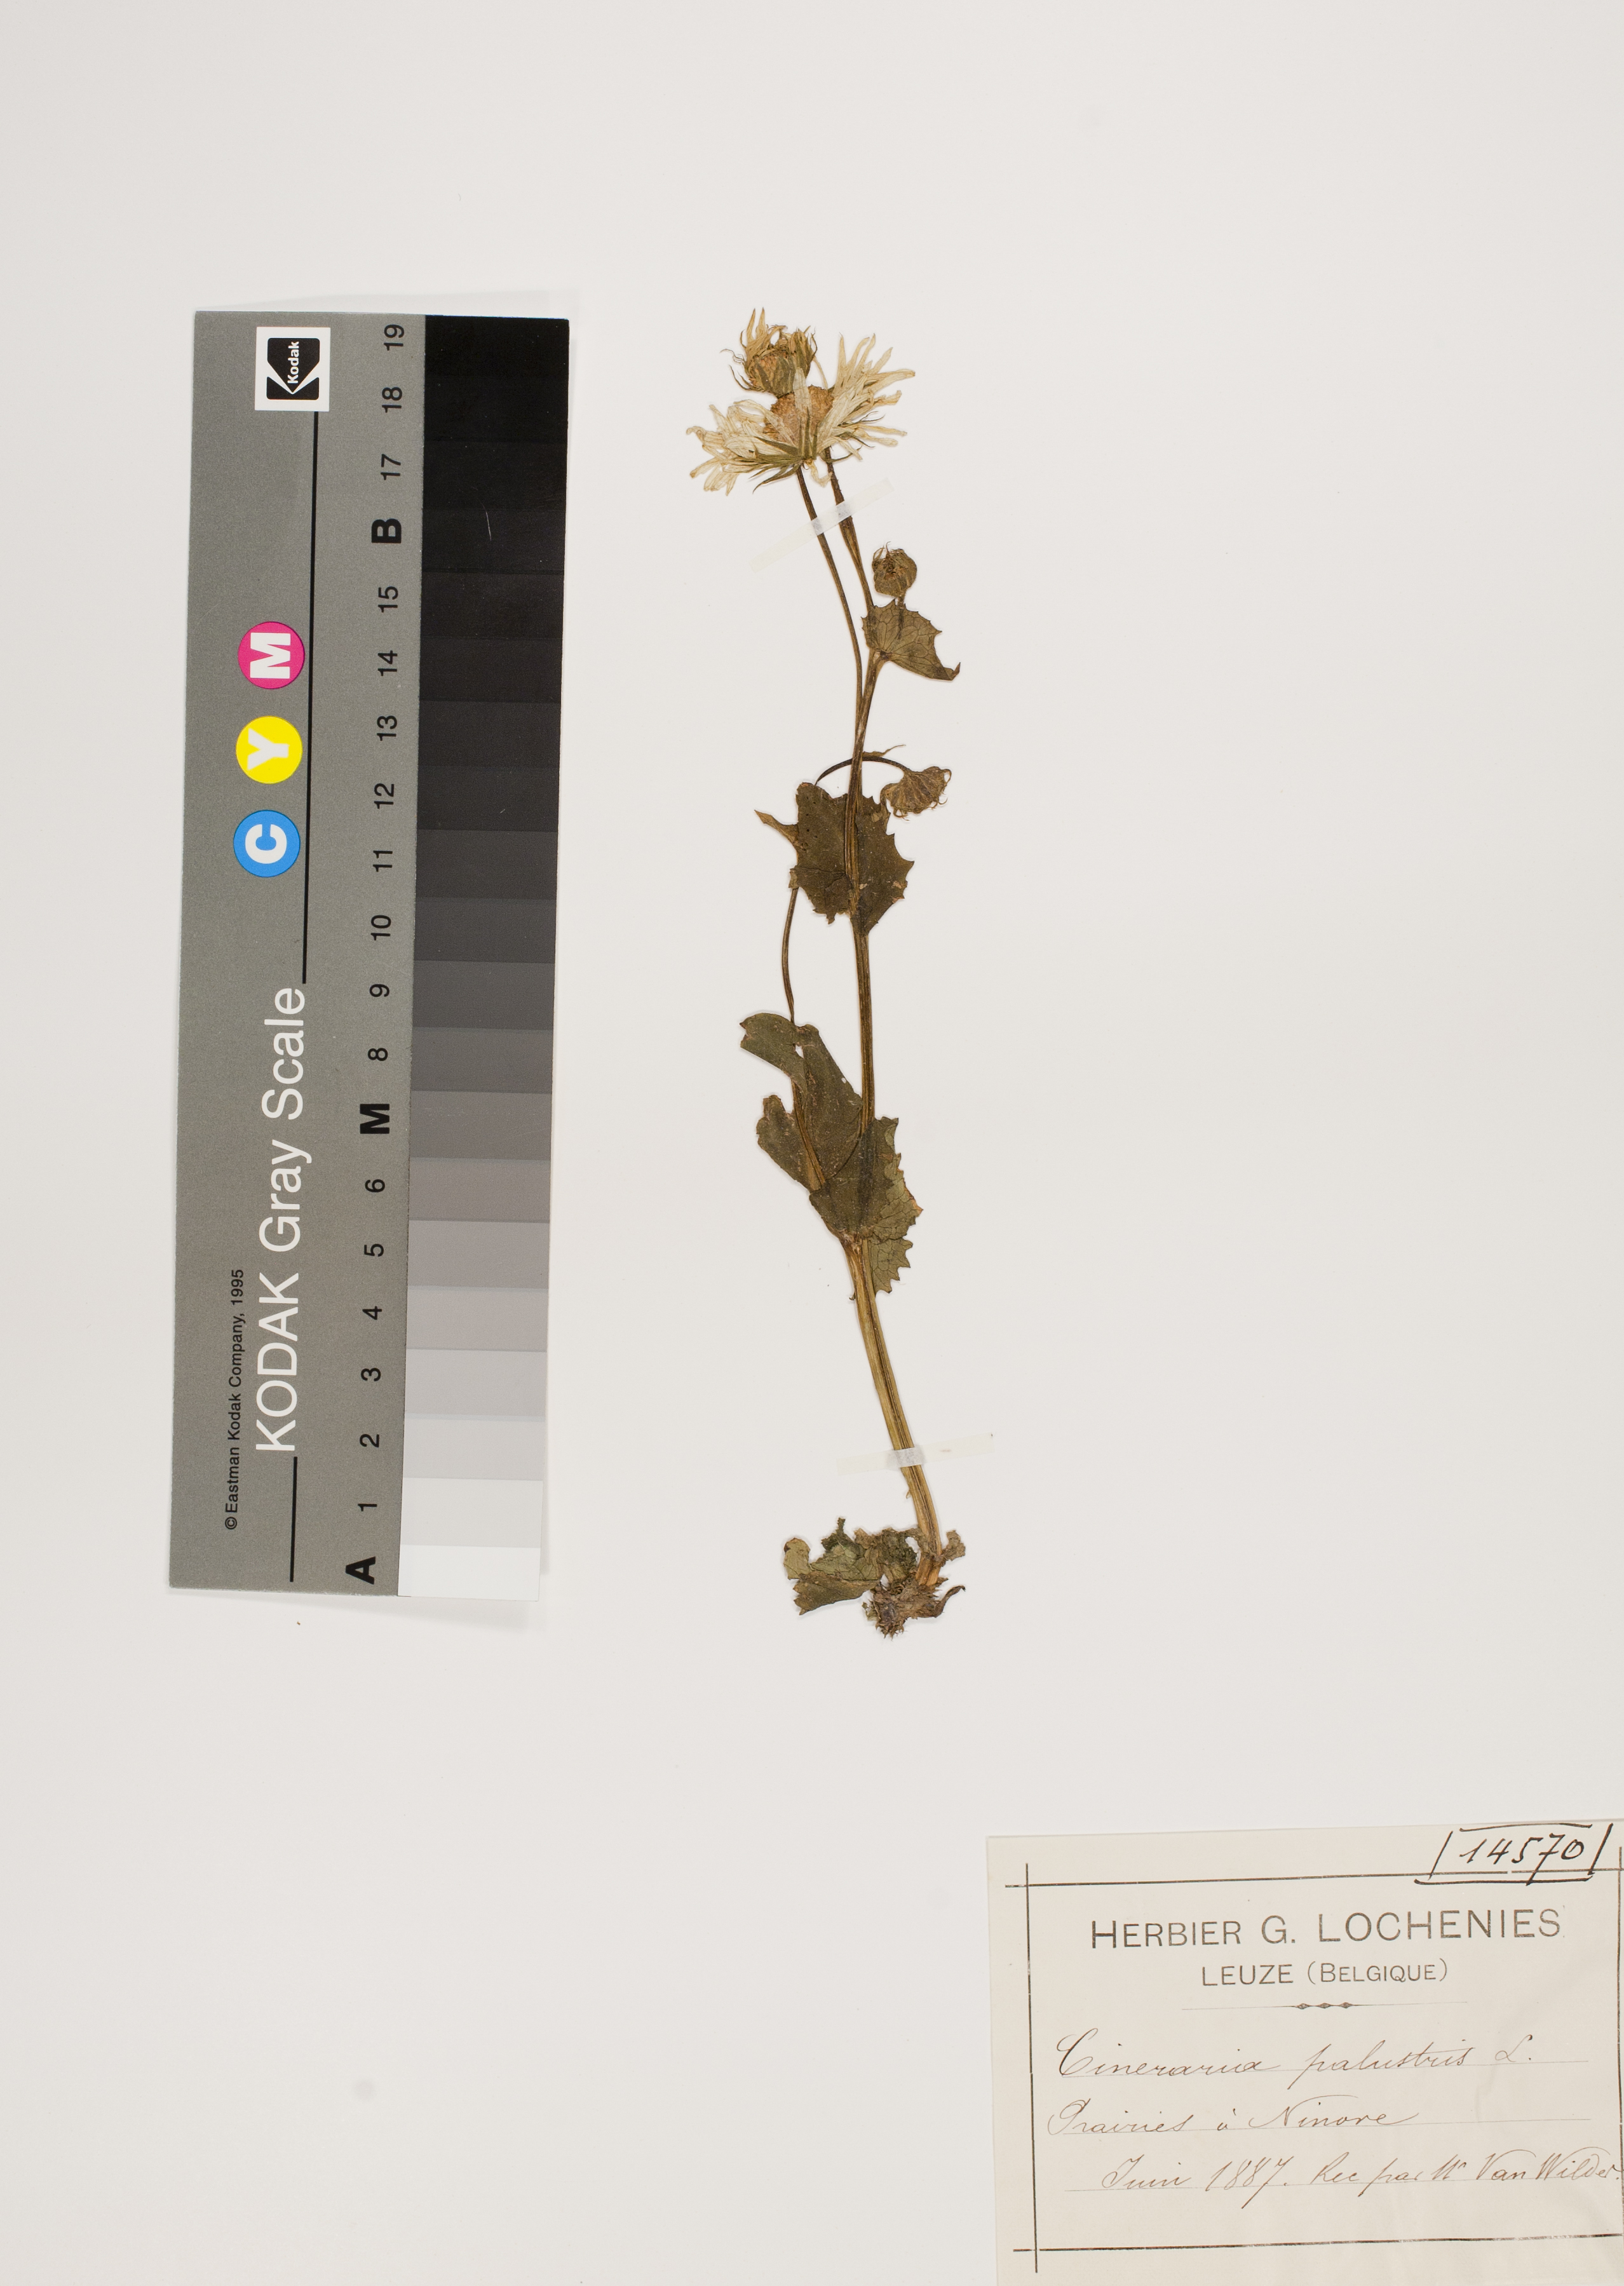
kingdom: Plantae
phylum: Tracheophyta
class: Magnoliopsida
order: Asterales
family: Asteraceae
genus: Senecio
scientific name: Senecio
